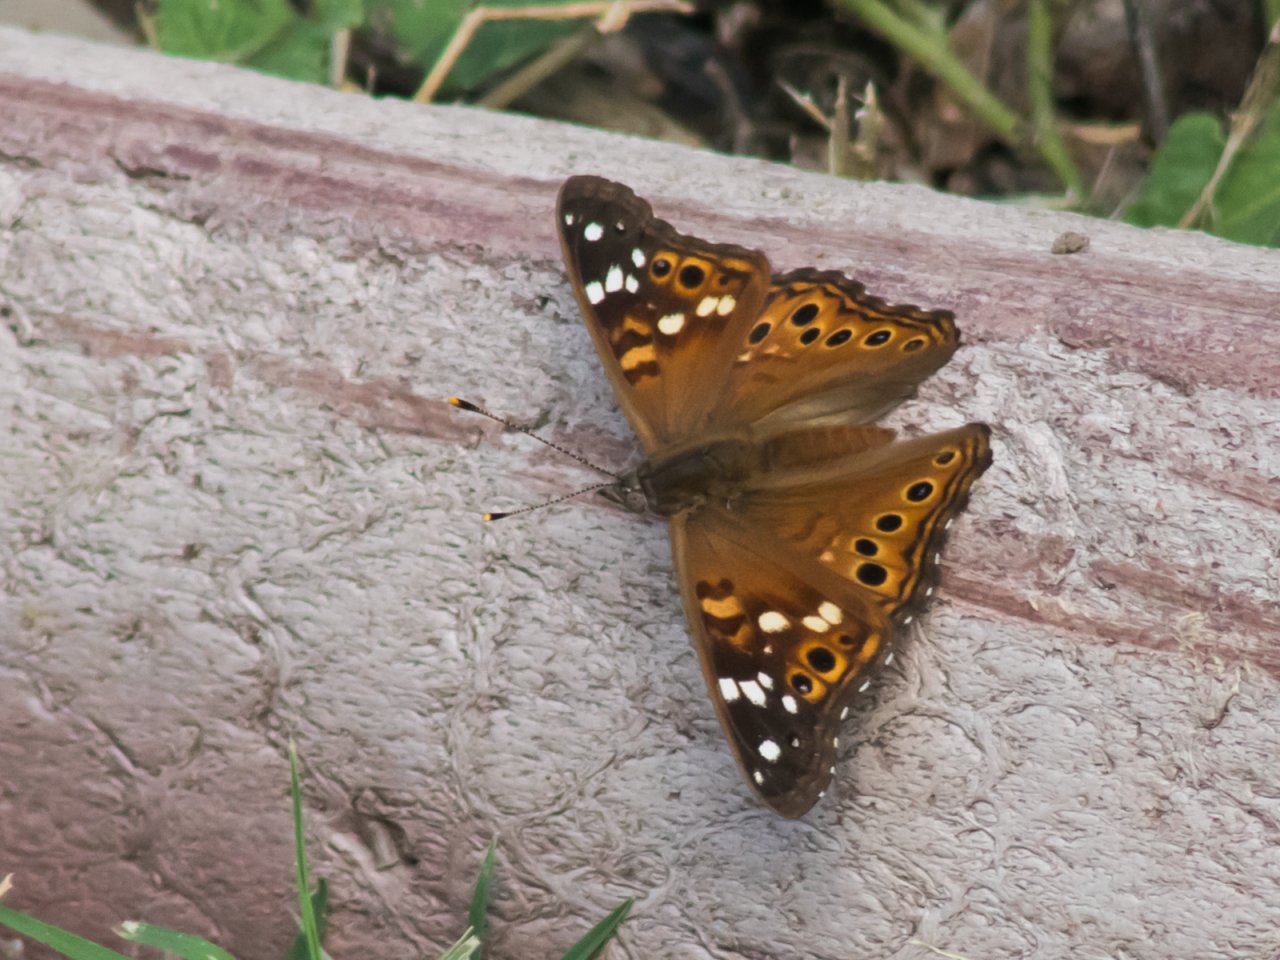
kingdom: Animalia
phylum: Arthropoda
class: Insecta
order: Lepidoptera
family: Nymphalidae
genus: Asterocampa
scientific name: Asterocampa leilia
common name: Empress Leilia
